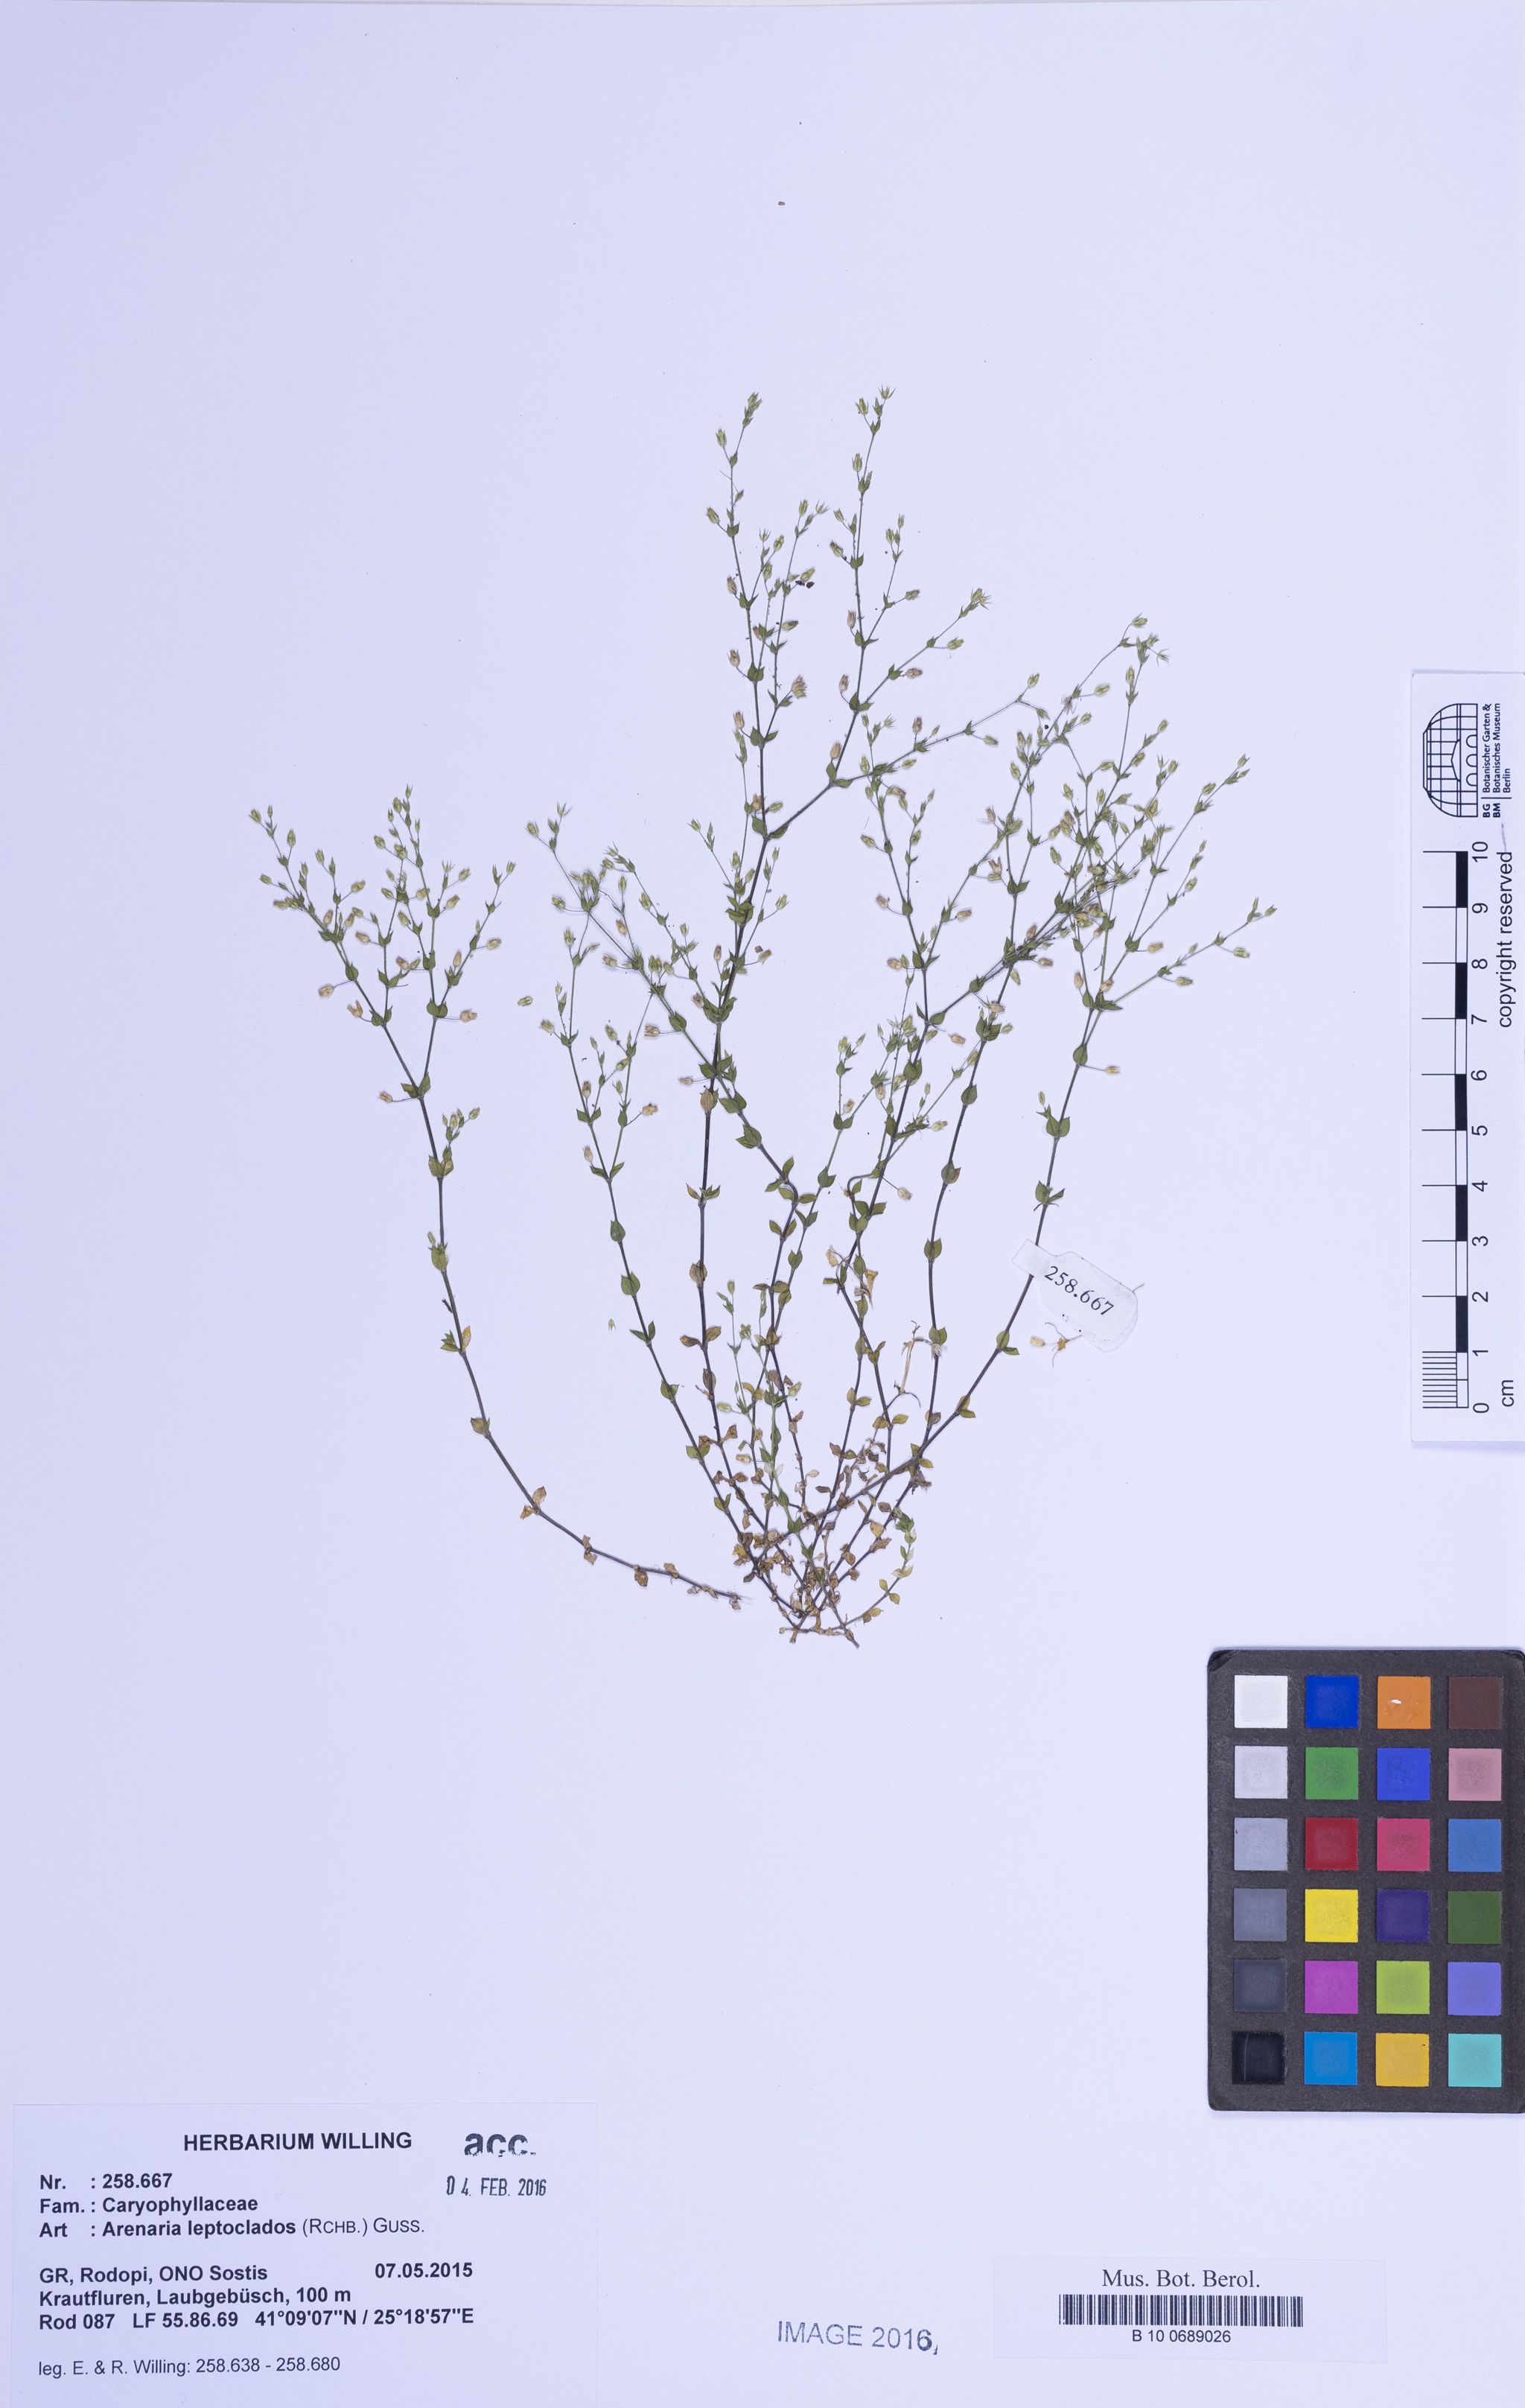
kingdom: Plantae
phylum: Tracheophyta
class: Magnoliopsida
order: Caryophyllales
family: Caryophyllaceae
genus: Arenaria
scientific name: Arenaria leptoclados
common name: Thyme-leaved sandwort
